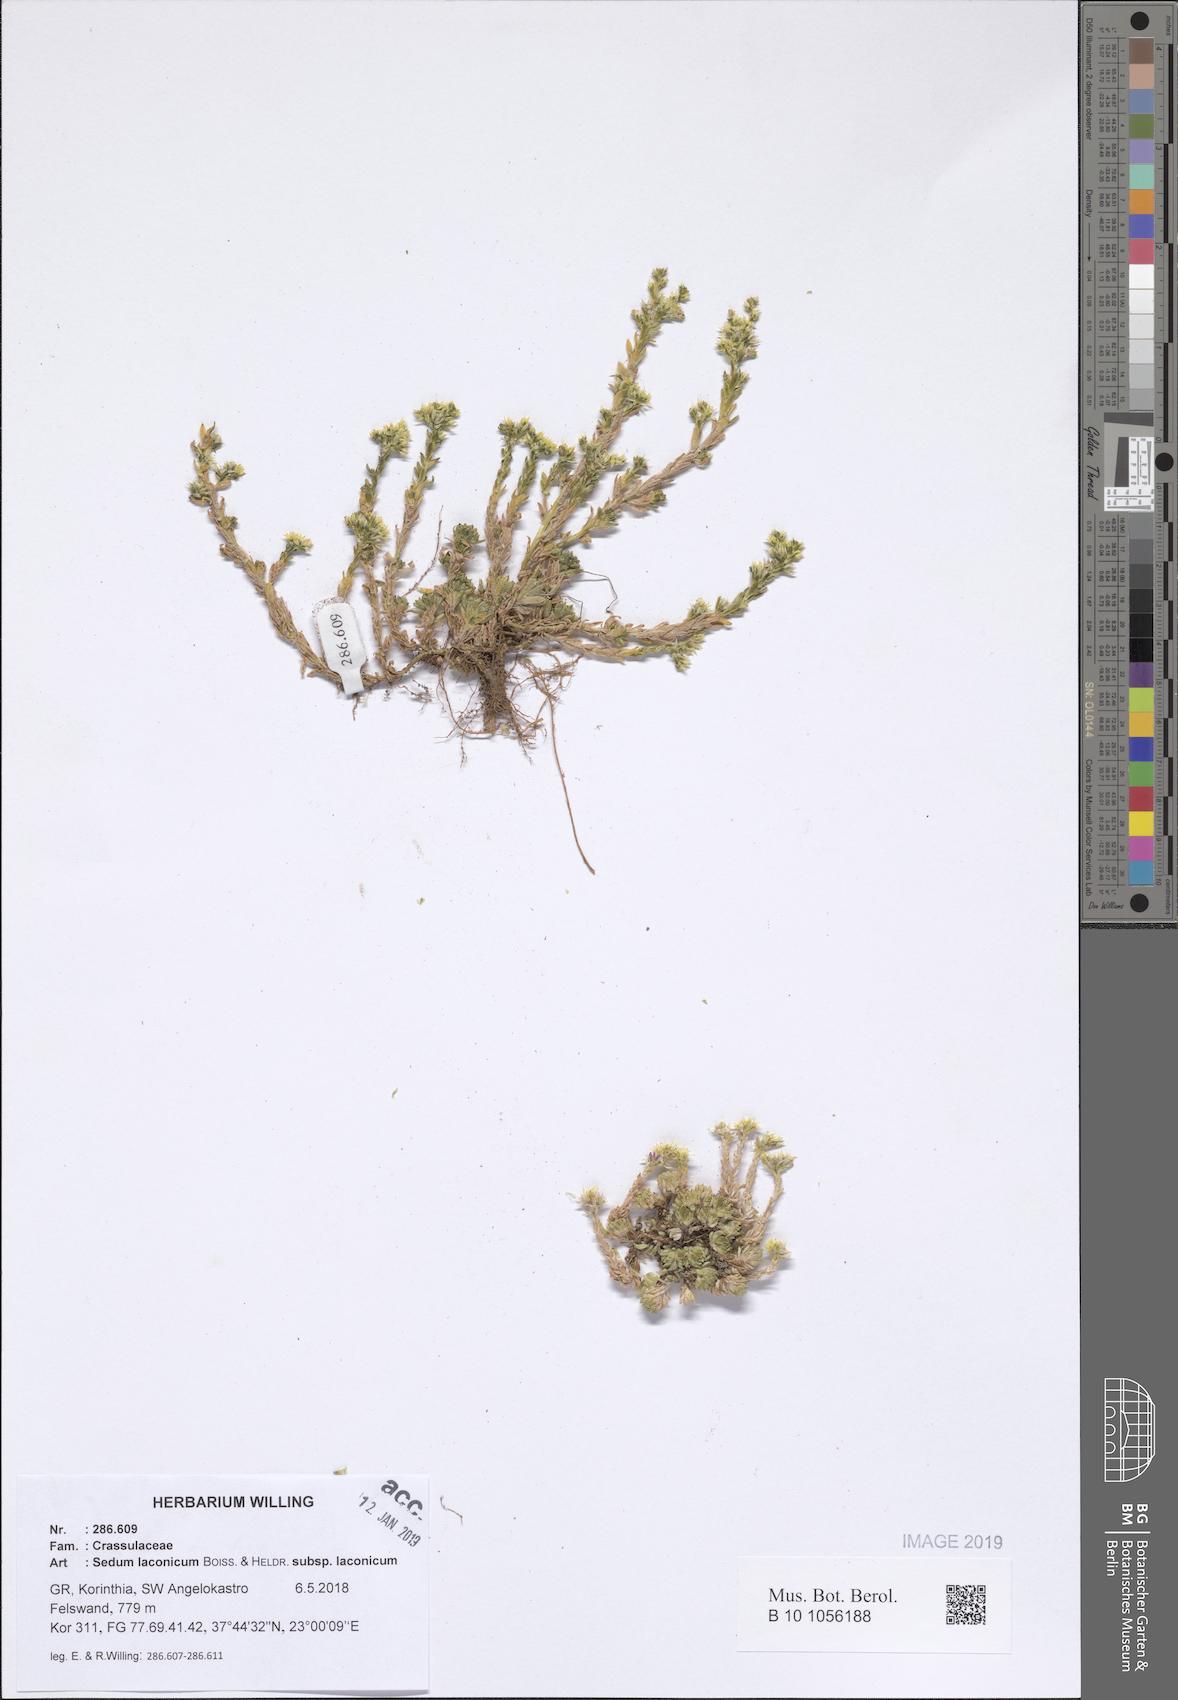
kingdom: Plantae
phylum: Tracheophyta
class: Magnoliopsida
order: Saxifragales
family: Crassulaceae
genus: Sedum
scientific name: Sedum laconicum
